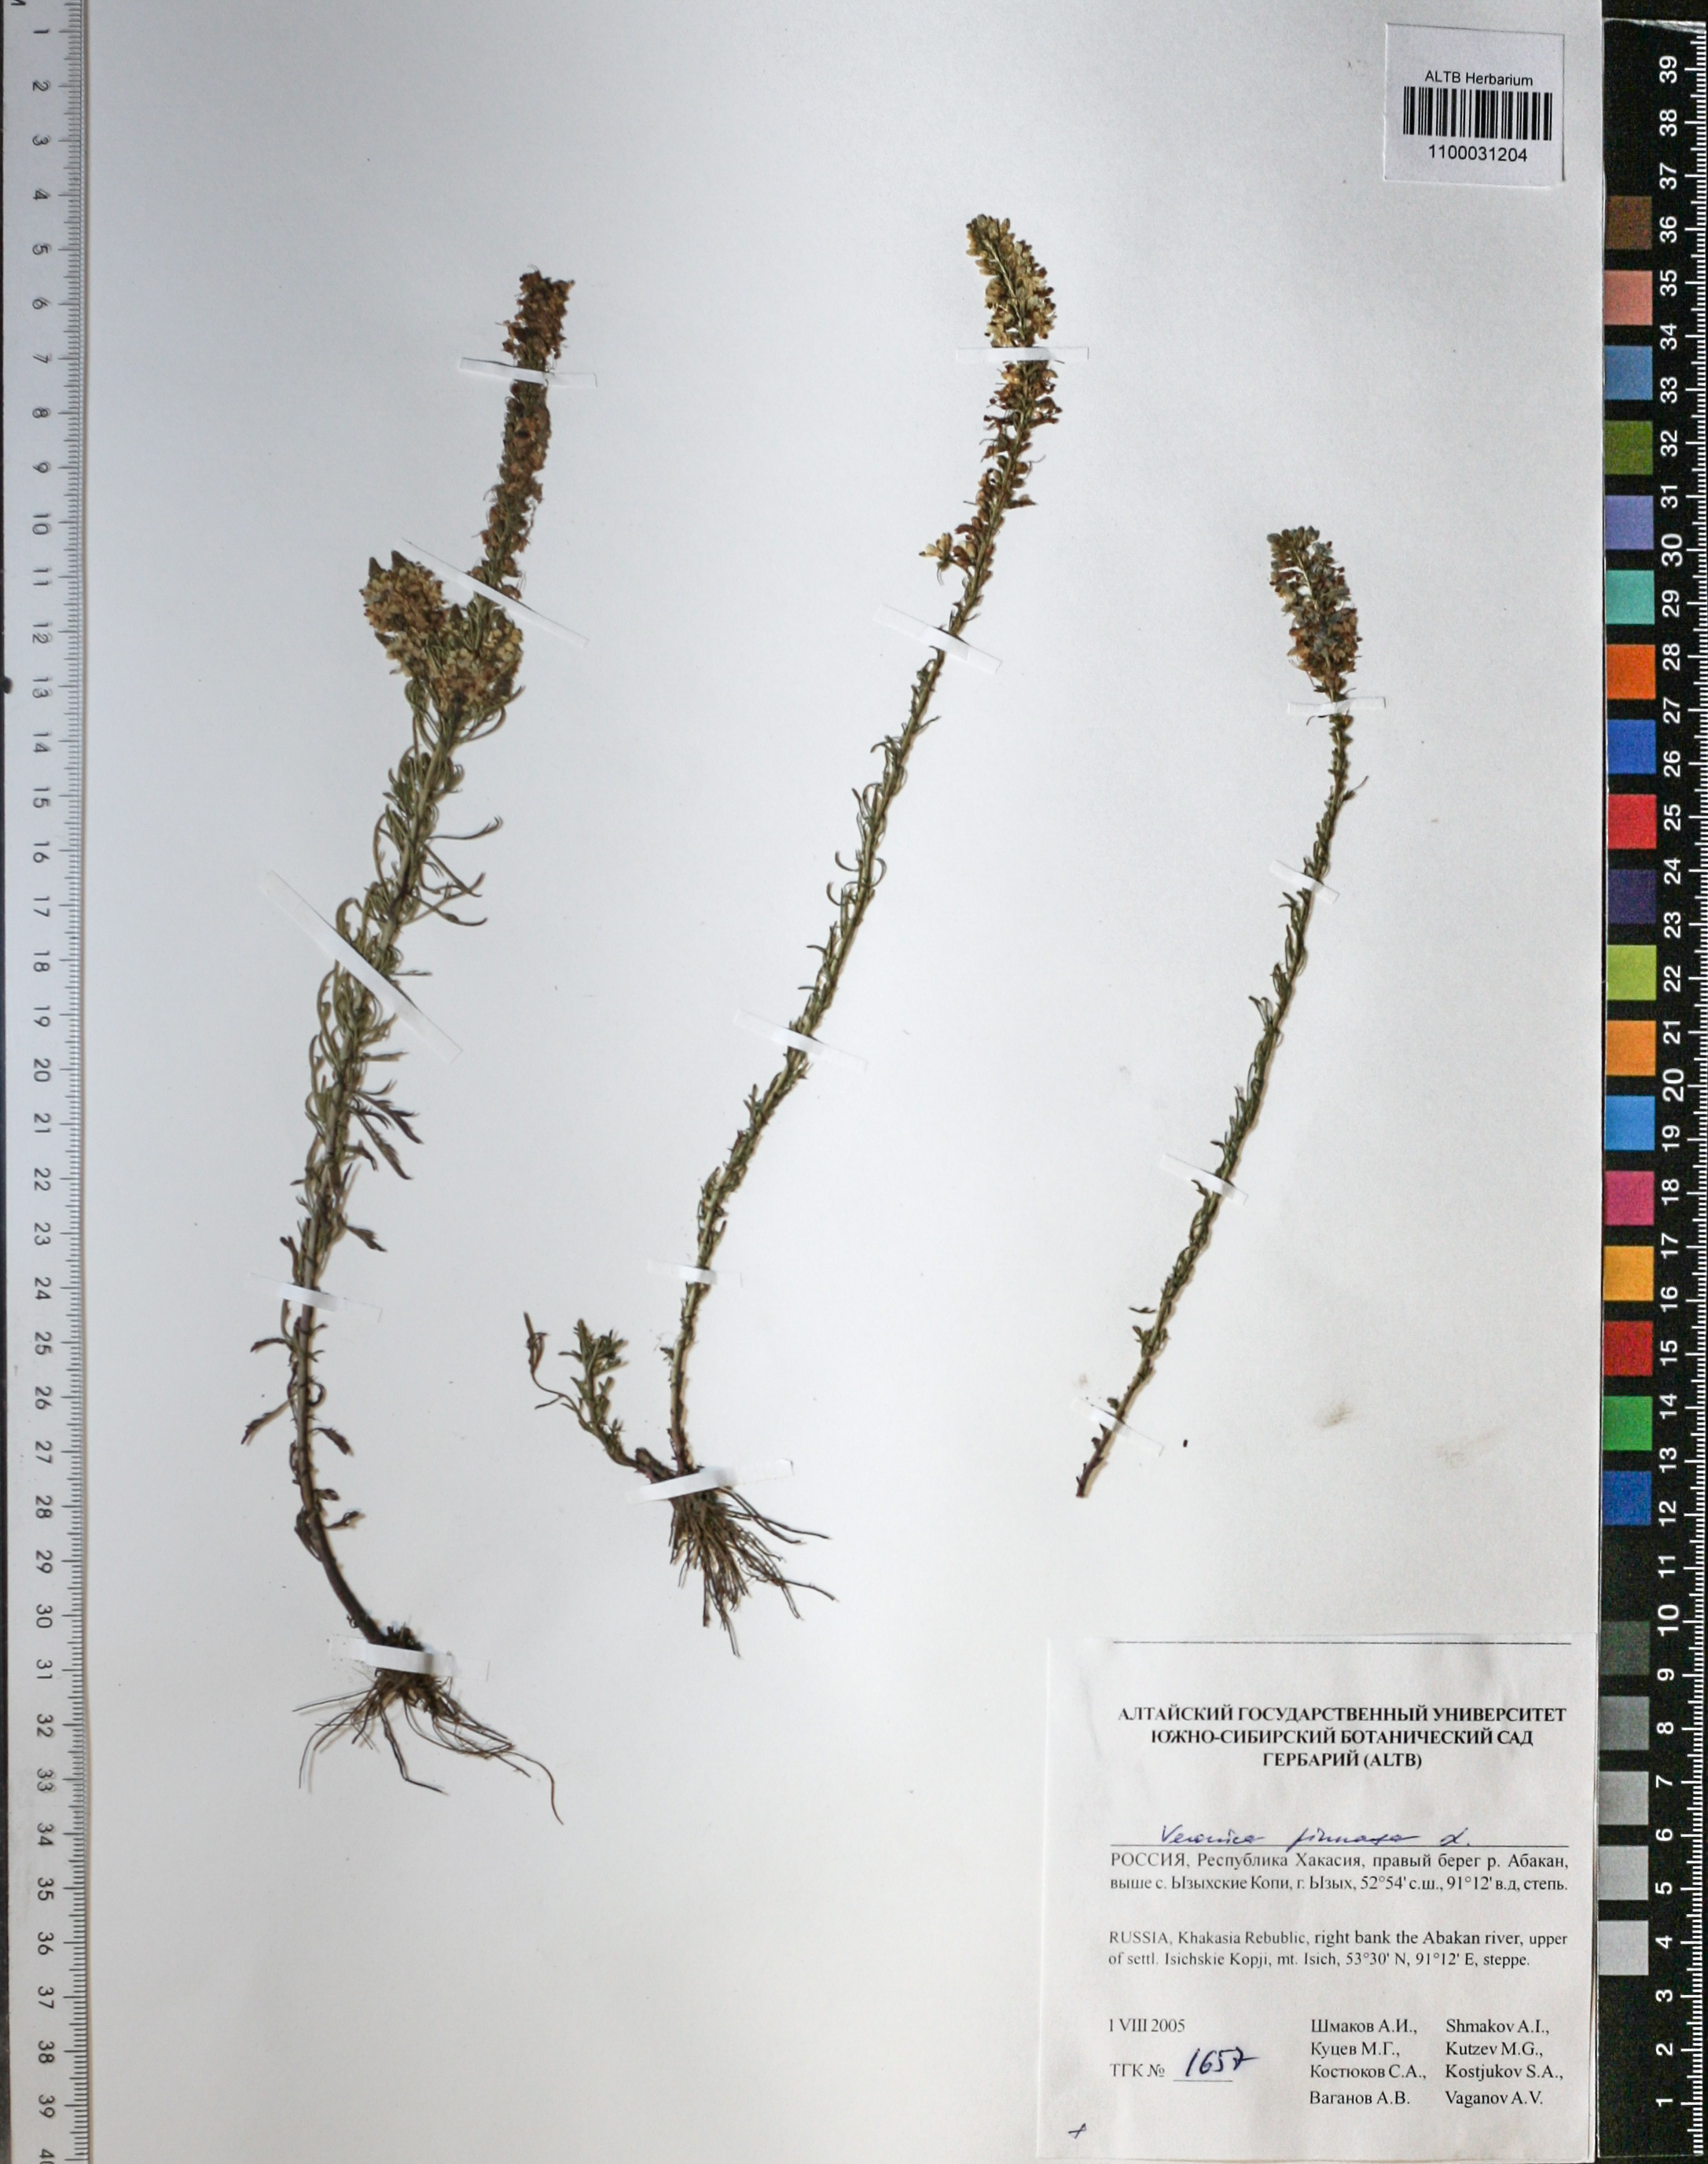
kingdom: Plantae
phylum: Tracheophyta
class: Magnoliopsida
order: Lamiales
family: Plantaginaceae
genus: Veronica
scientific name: Veronica pinnata
